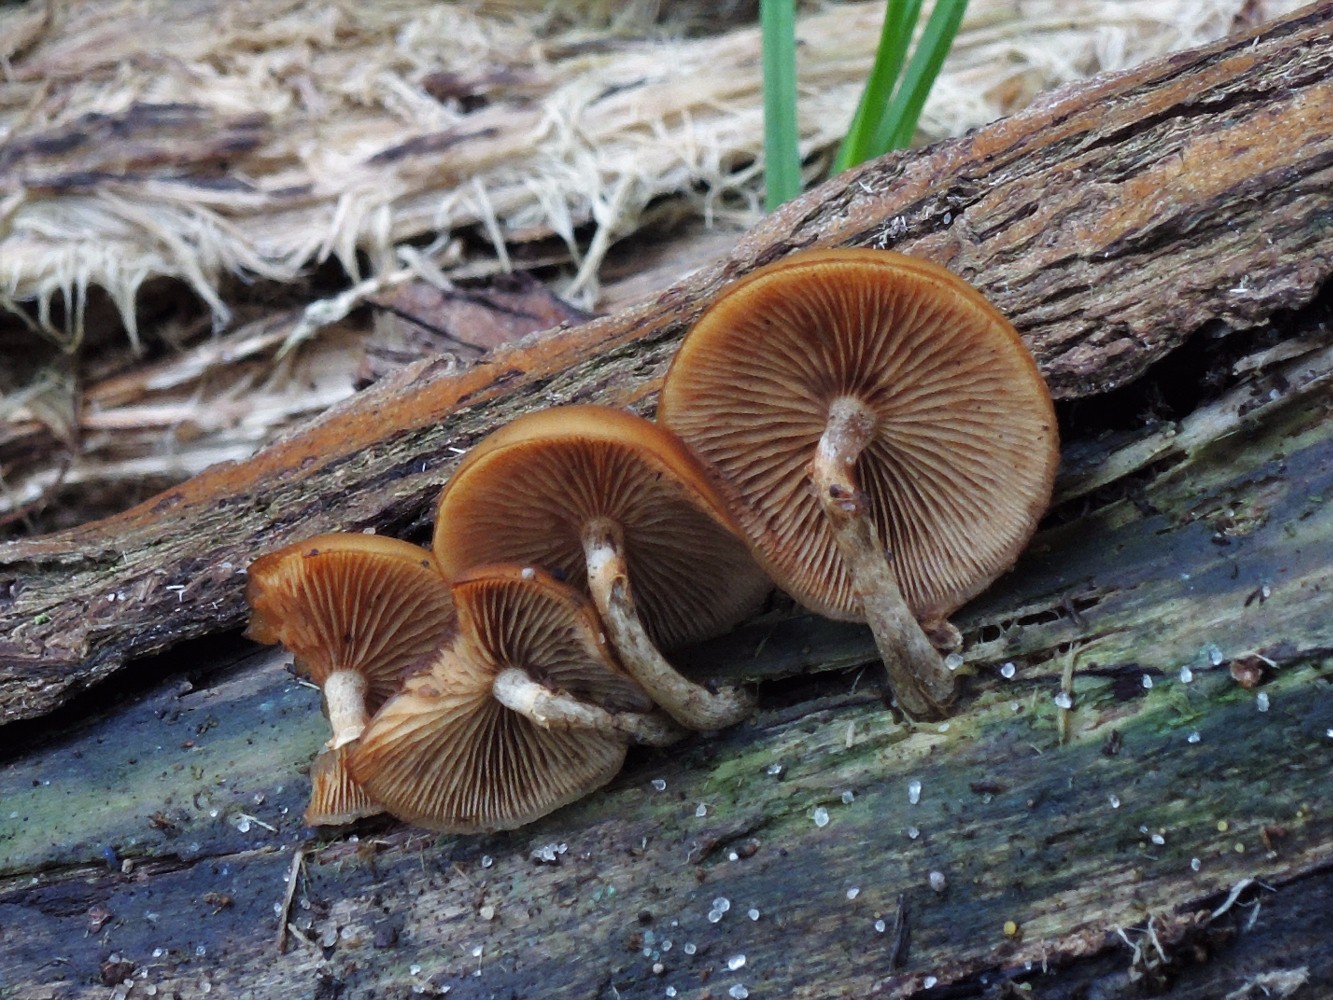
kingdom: Fungi
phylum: Basidiomycota
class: Agaricomycetes
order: Agaricales
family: Hymenogastraceae
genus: Galerina
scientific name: Galerina marginata
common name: randbæltet hjelmhat
